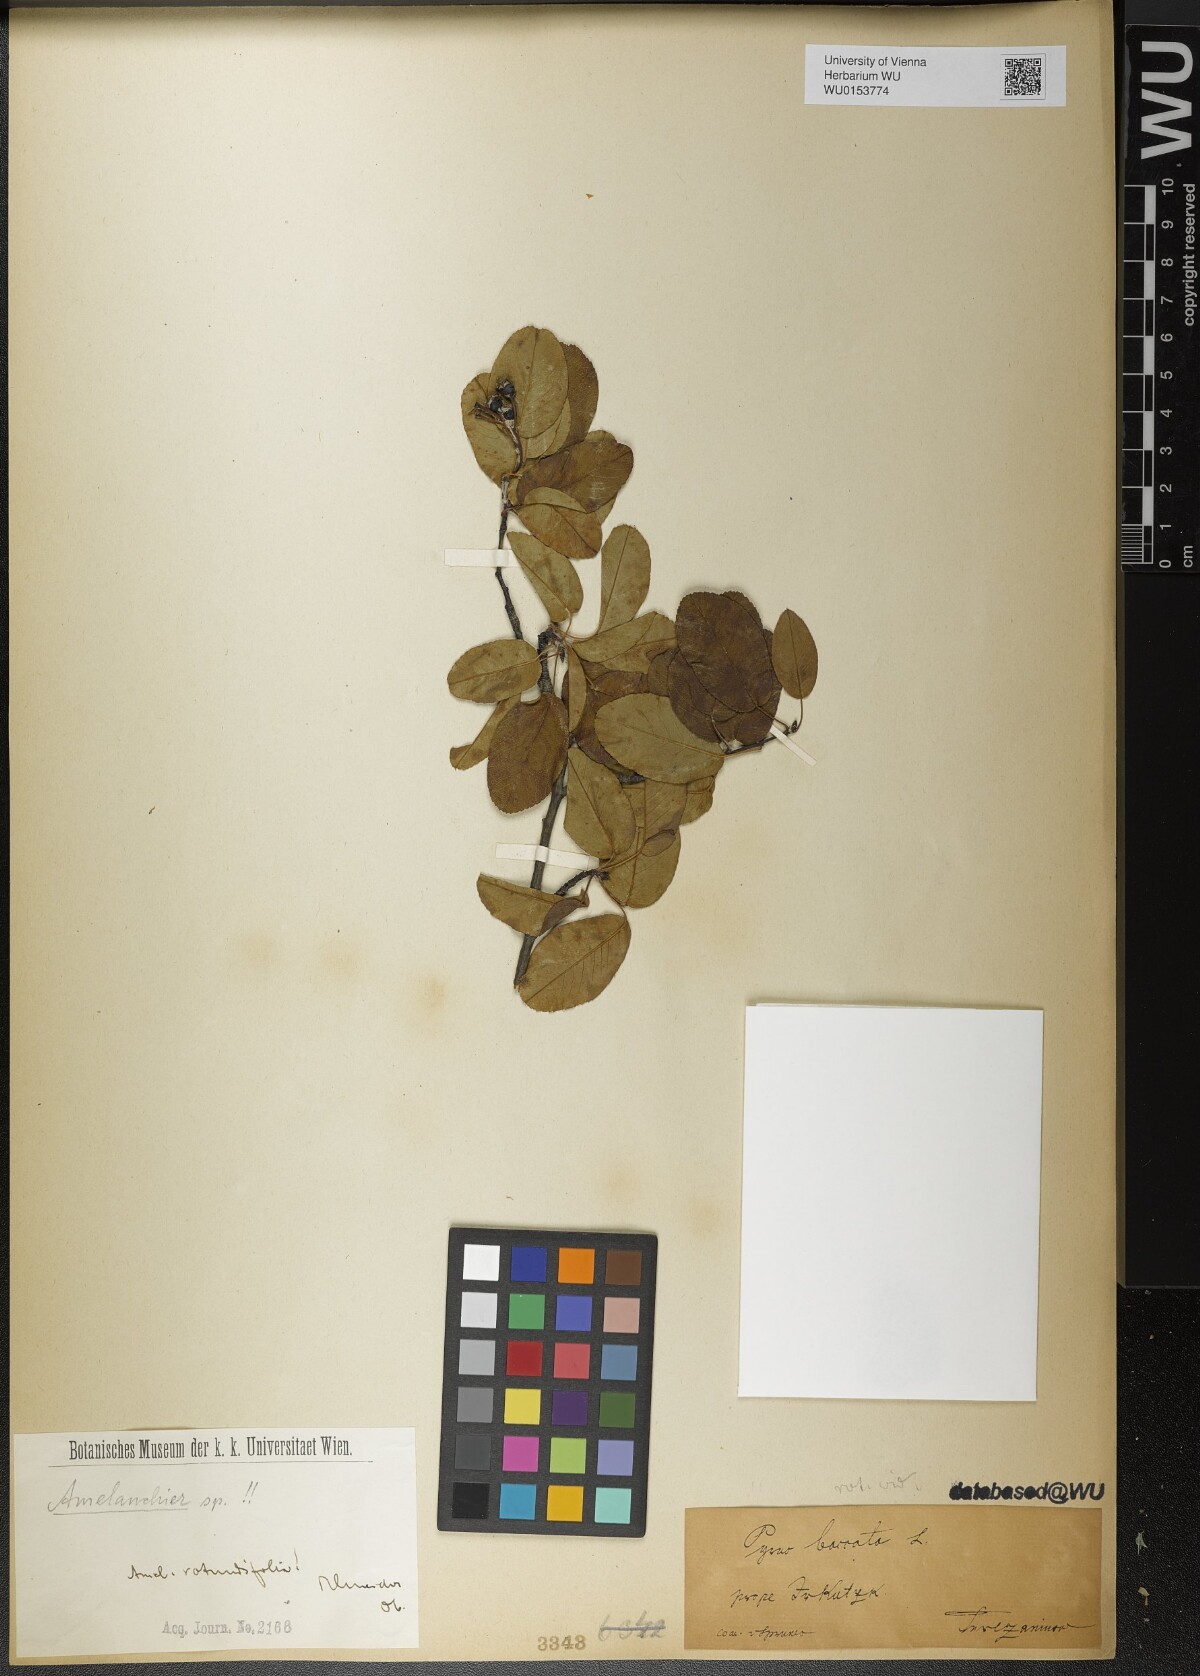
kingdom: Plantae
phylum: Tracheophyta
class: Magnoliopsida
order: Rosales
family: Rosaceae
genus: Amelanchier
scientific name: Amelanchier ovalis
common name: Serviceberry
